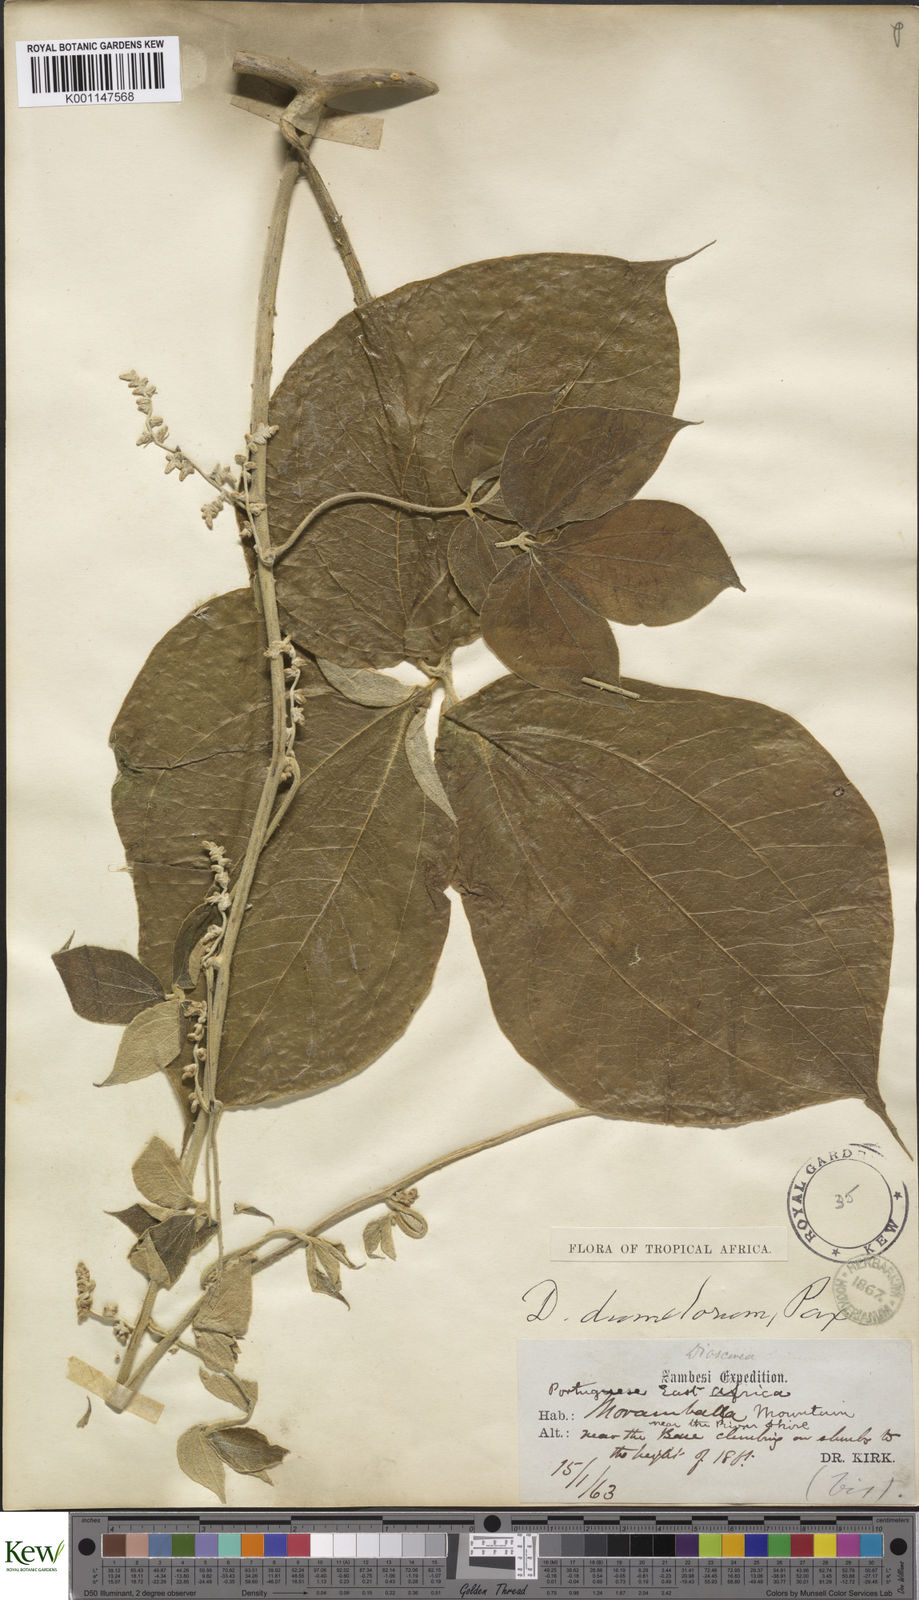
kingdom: Plantae
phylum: Tracheophyta
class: Liliopsida
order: Dioscoreales
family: Dioscoreaceae
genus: Dioscorea
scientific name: Dioscorea dumetorum
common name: African bitter yam
